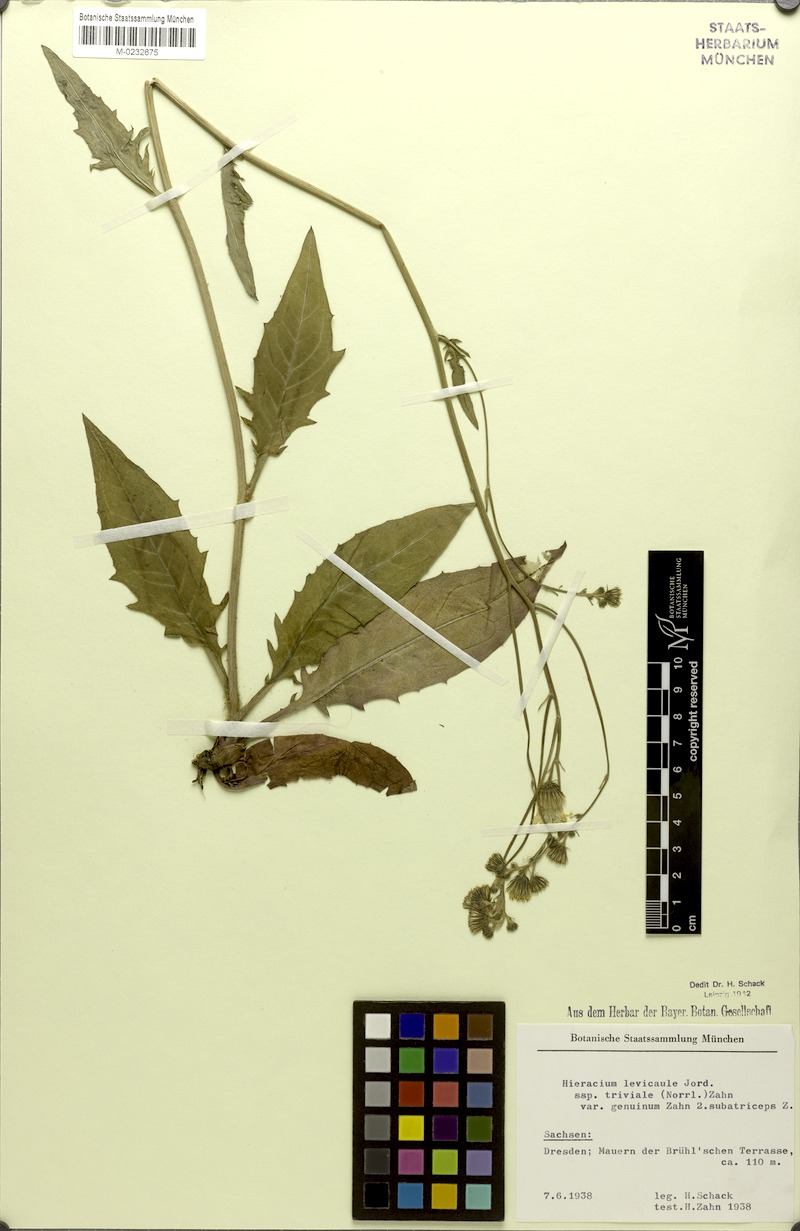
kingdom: Plantae
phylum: Tracheophyta
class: Magnoliopsida
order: Asterales
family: Asteraceae
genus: Hieracium
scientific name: Hieracium levicaule
